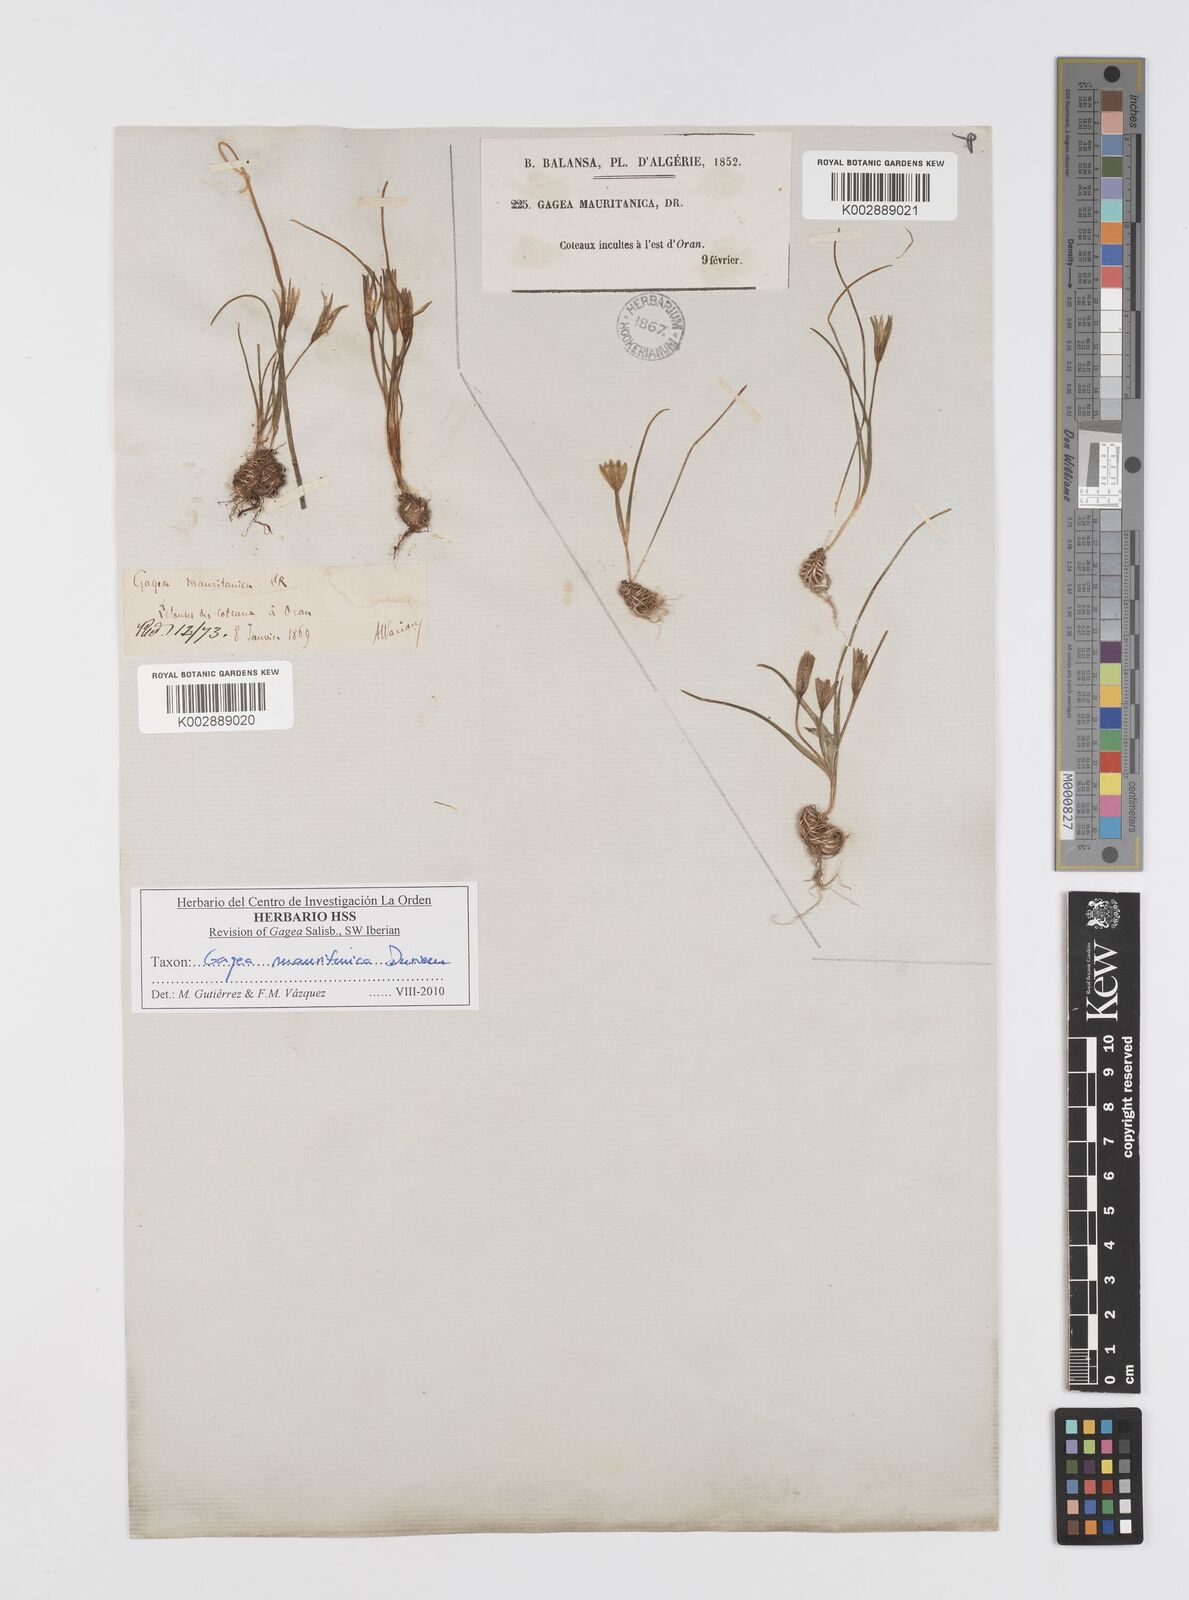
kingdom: Plantae
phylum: Tracheophyta
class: Liliopsida
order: Liliales
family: Liliaceae
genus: Gagea
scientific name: Gagea mauritanica
